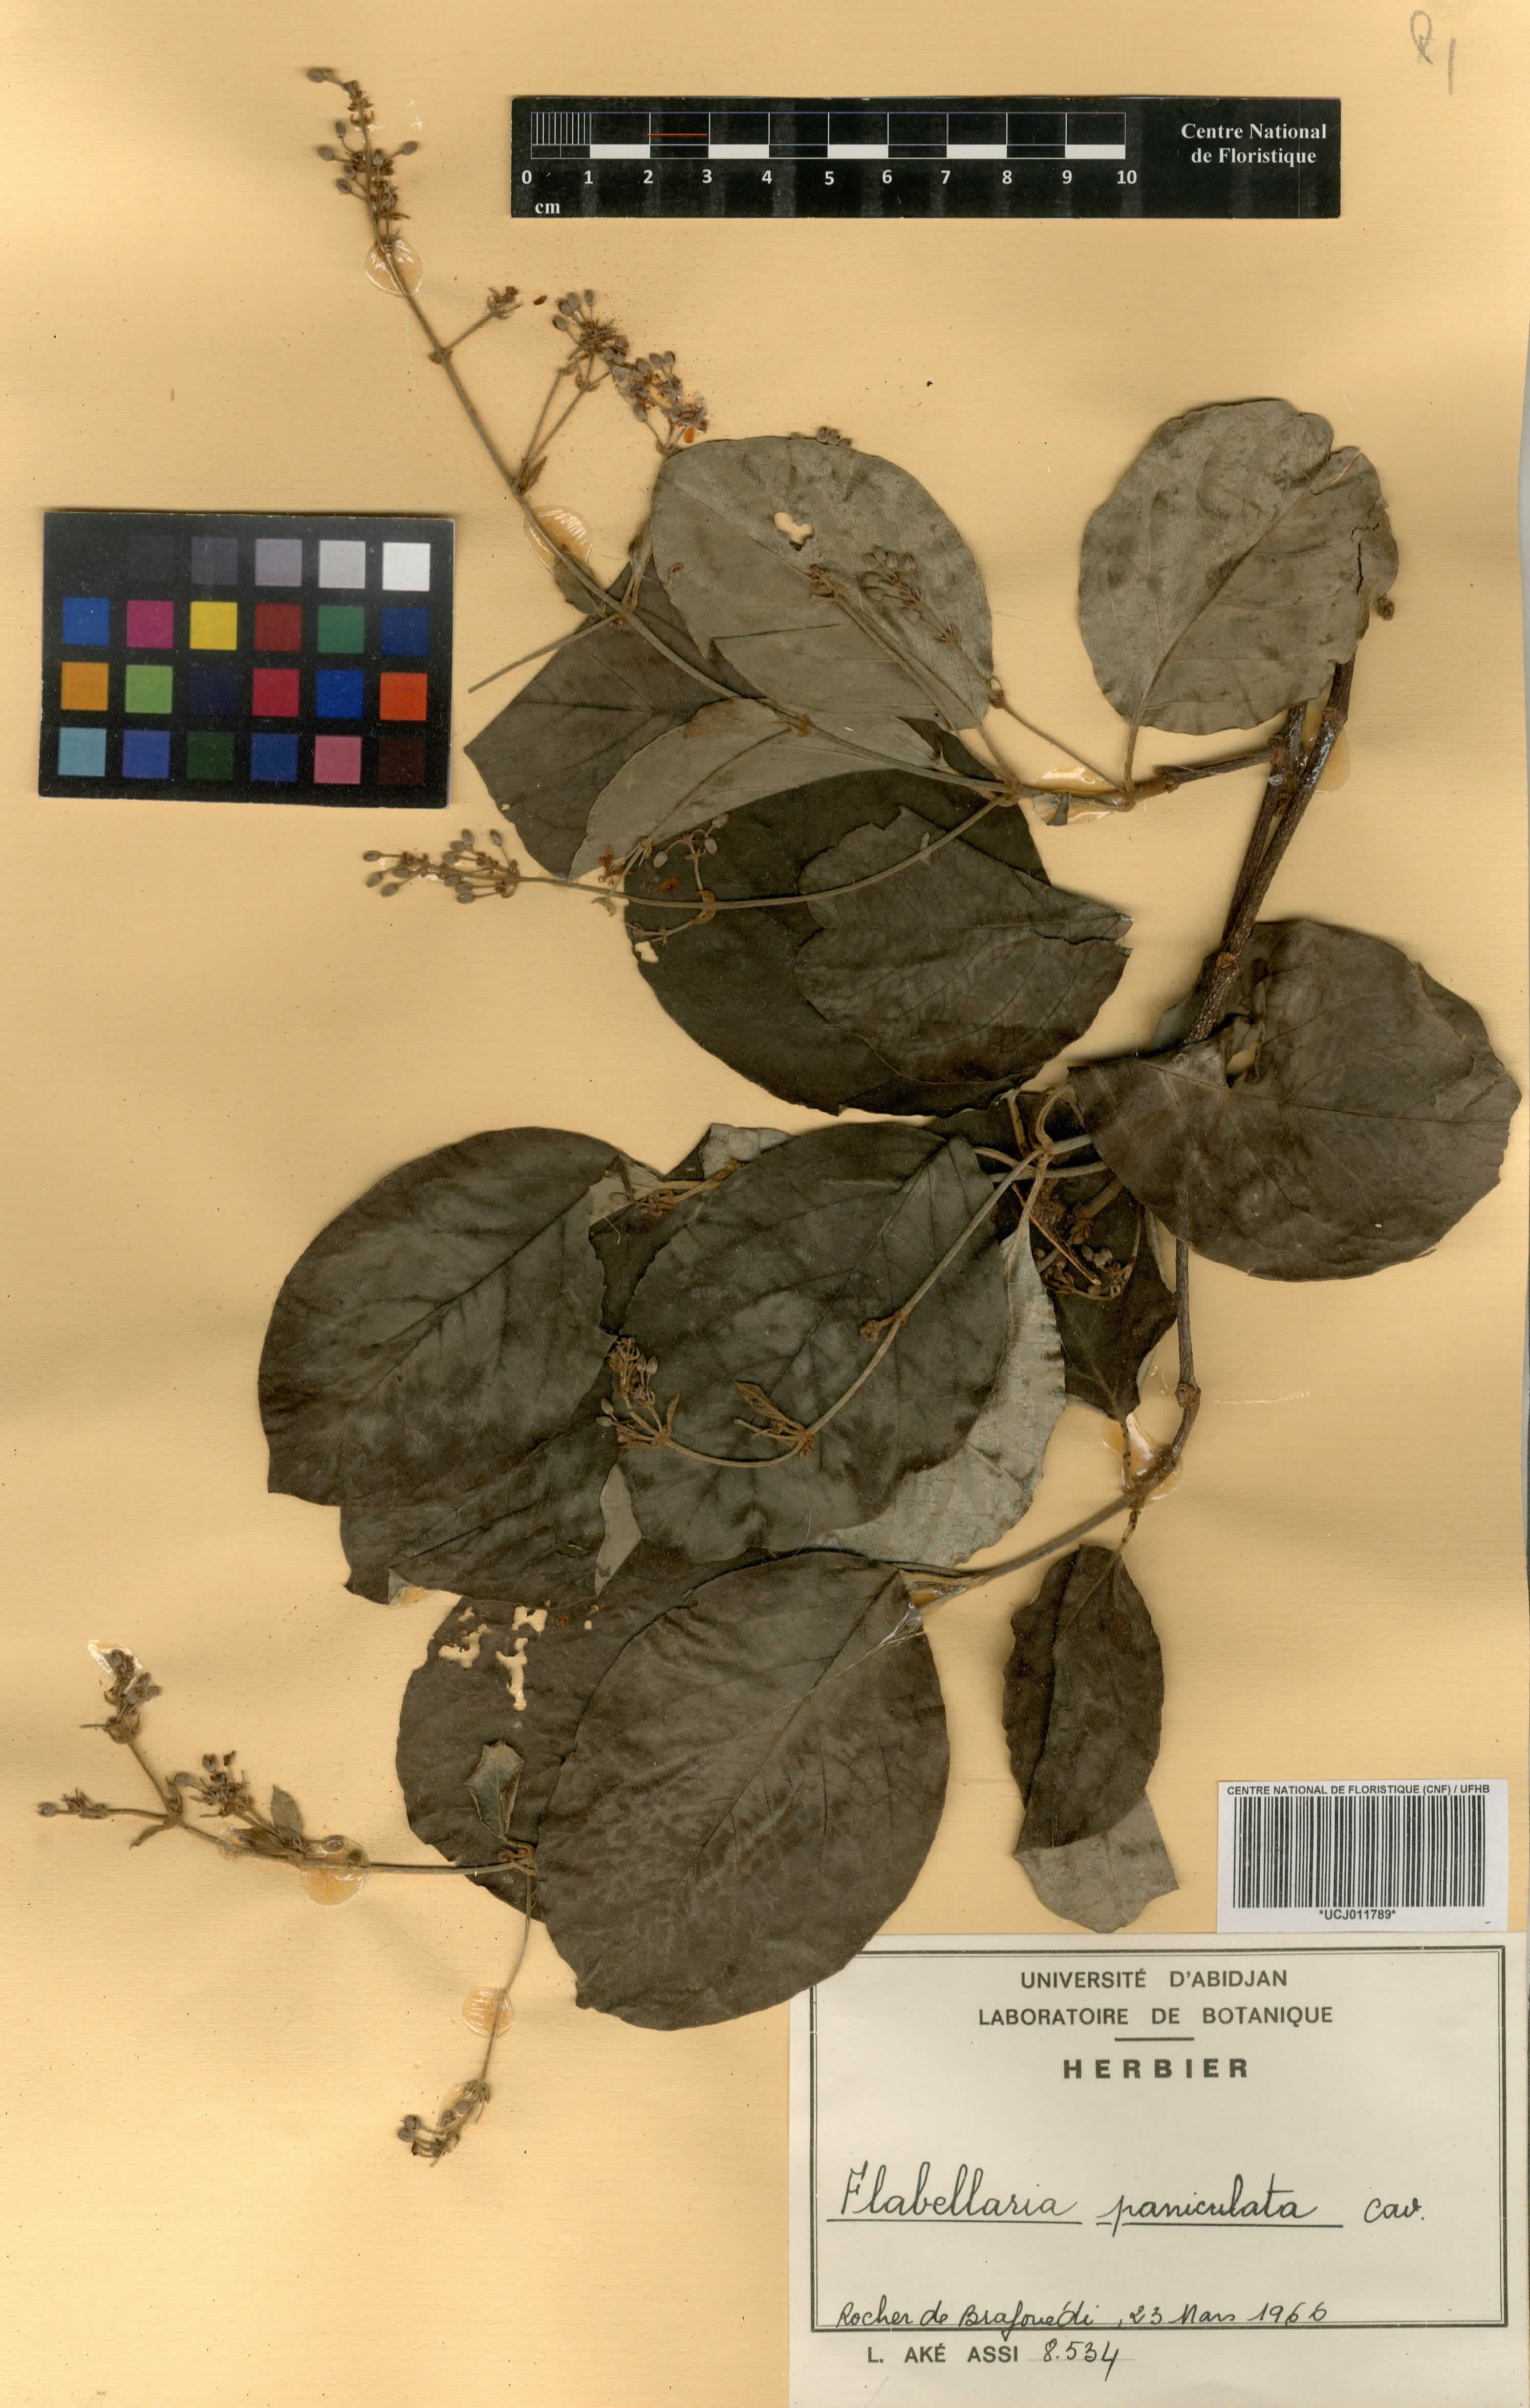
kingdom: Plantae
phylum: Tracheophyta
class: Magnoliopsida
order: Malpighiales
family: Malpighiaceae
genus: Flabellaria
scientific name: Flabellaria paniculata
